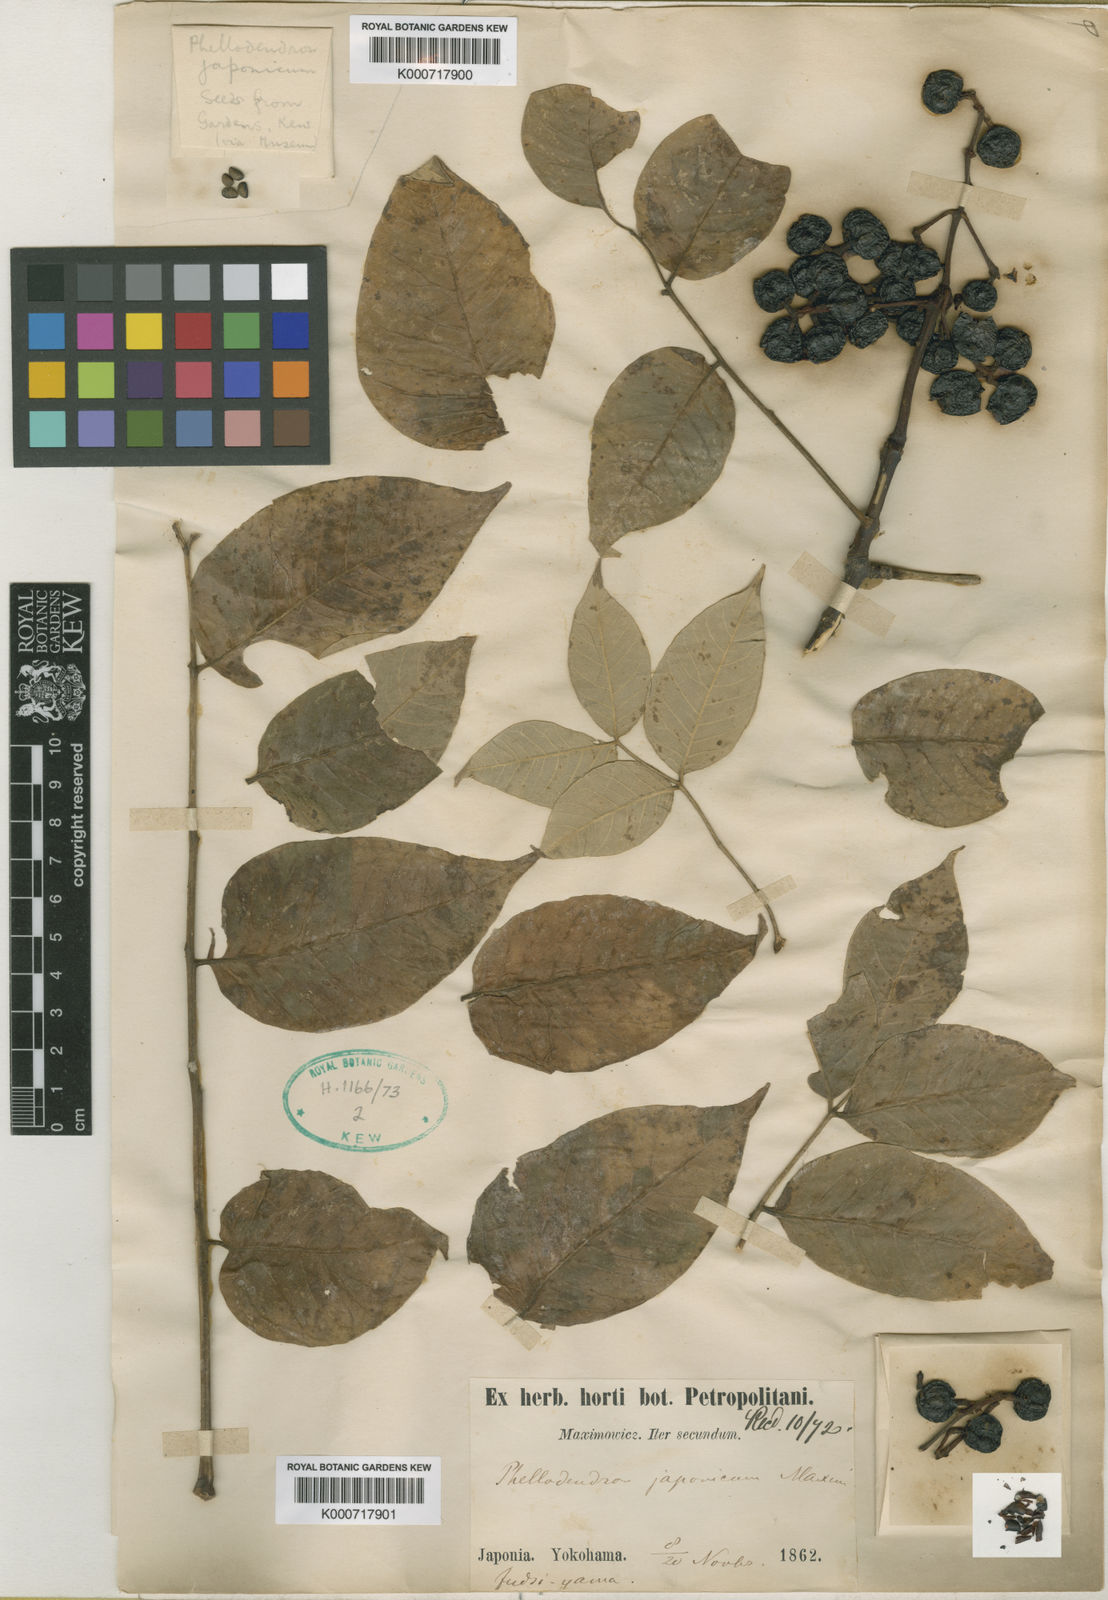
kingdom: Plantae
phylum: Tracheophyta
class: Magnoliopsida
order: Sapindales
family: Rutaceae
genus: Phellodendron
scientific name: Phellodendron amurense
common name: Amur corktree
